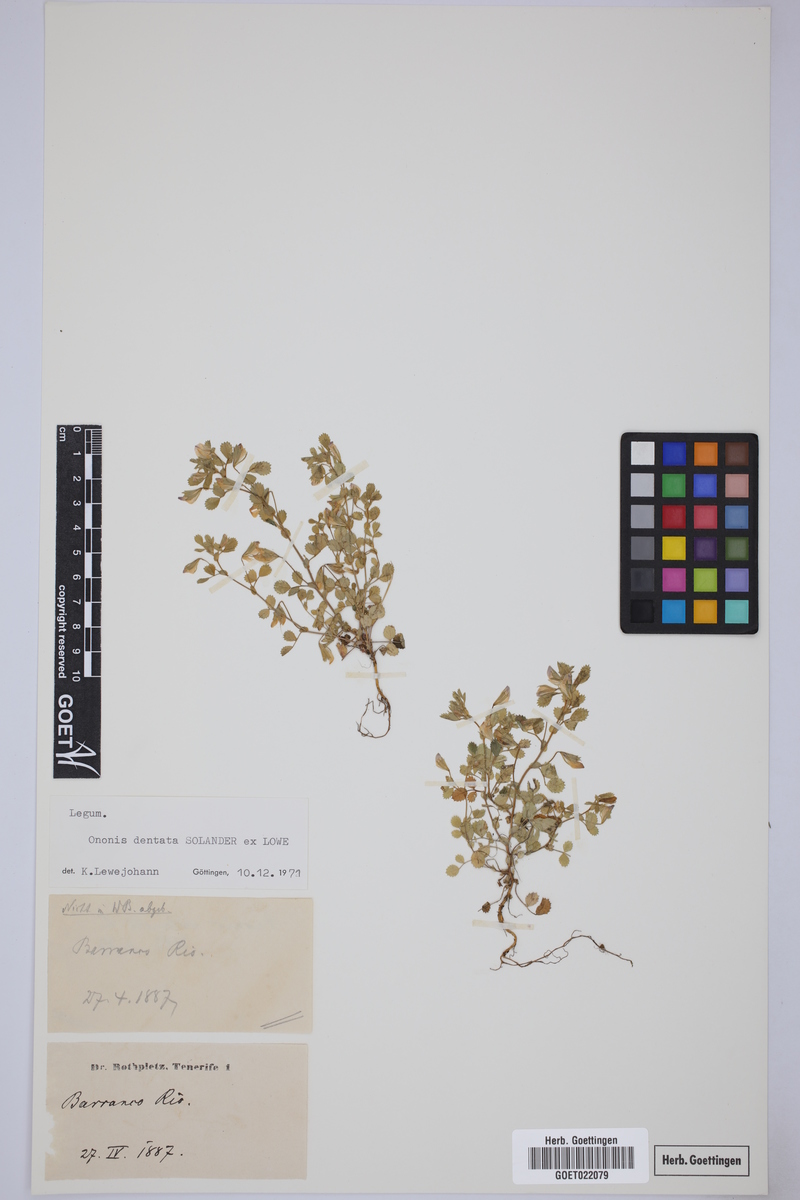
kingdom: Plantae
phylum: Tracheophyta
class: Magnoliopsida
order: Fabales
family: Fabaceae
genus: Ononis
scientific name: Ononis dentata
